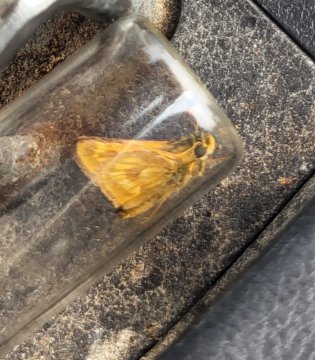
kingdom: Animalia
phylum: Arthropoda
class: Insecta
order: Lepidoptera
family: Hesperiidae
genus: Polites
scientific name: Polites
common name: Long Dash Skipper
